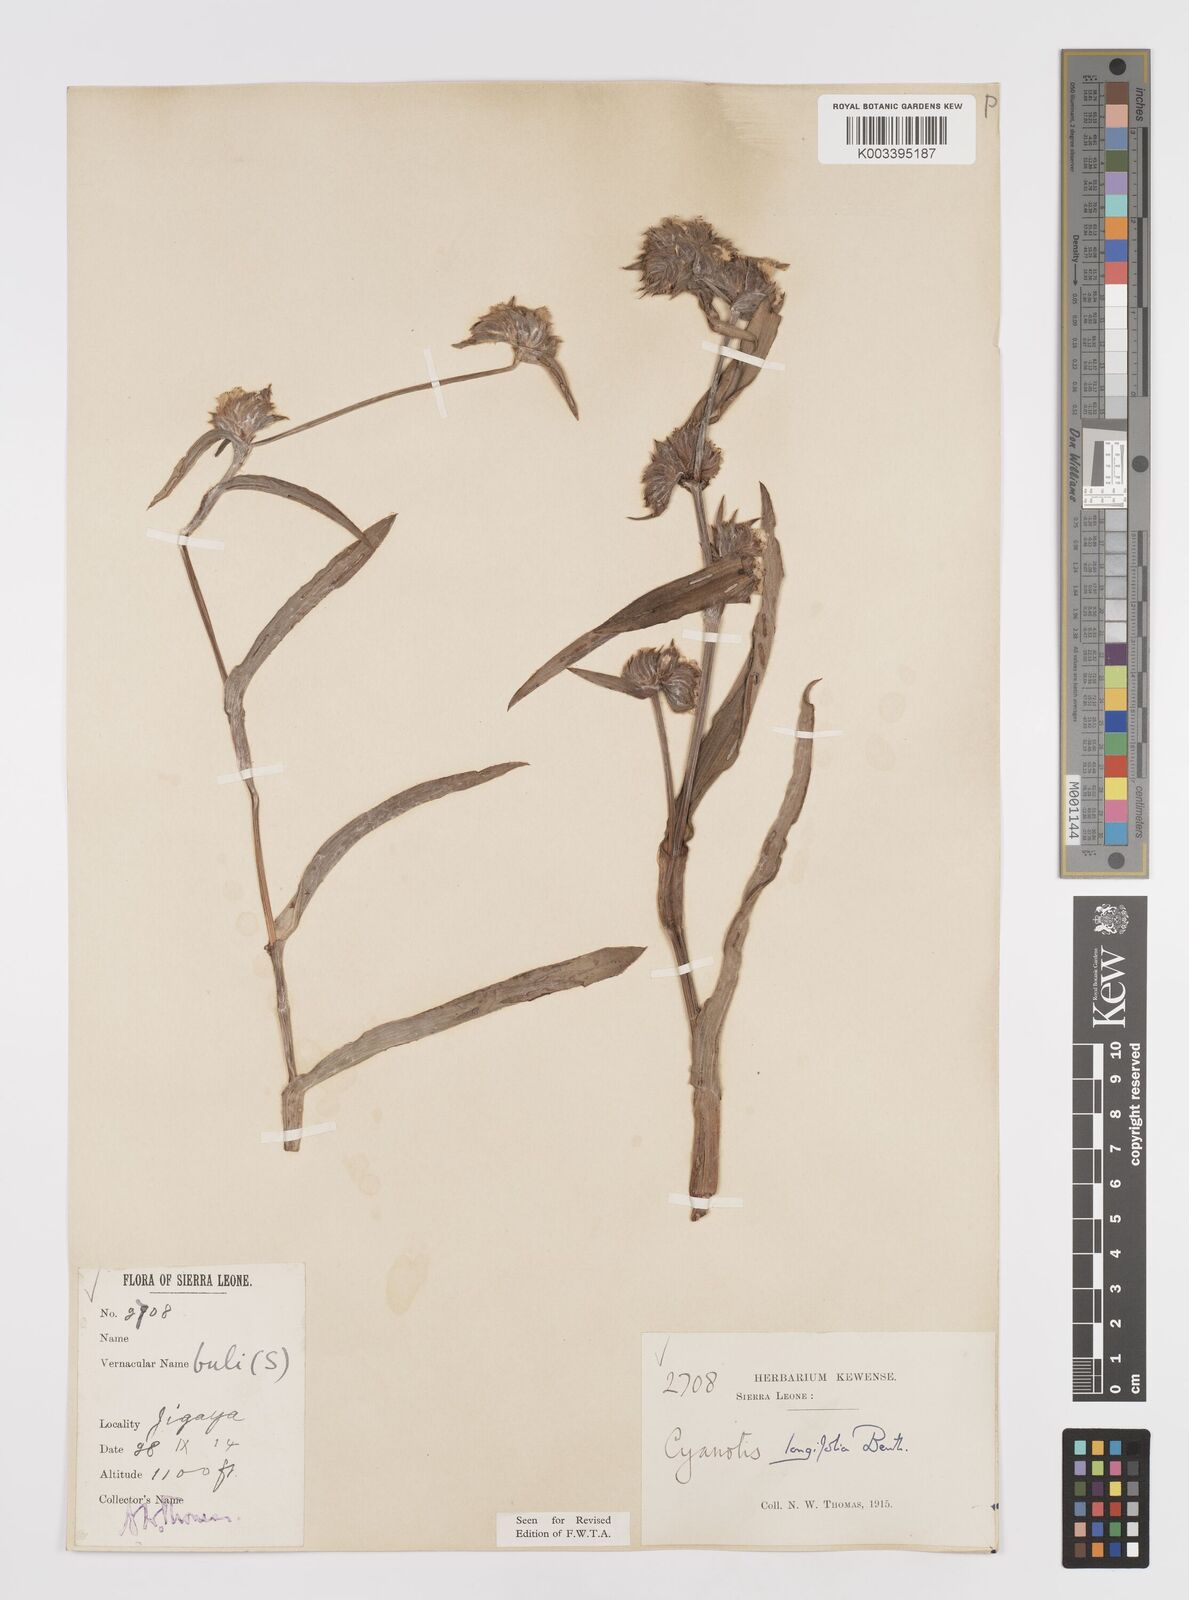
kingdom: Plantae
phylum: Tracheophyta
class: Liliopsida
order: Commelinales
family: Commelinaceae
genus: Cyanotis
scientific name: Cyanotis
